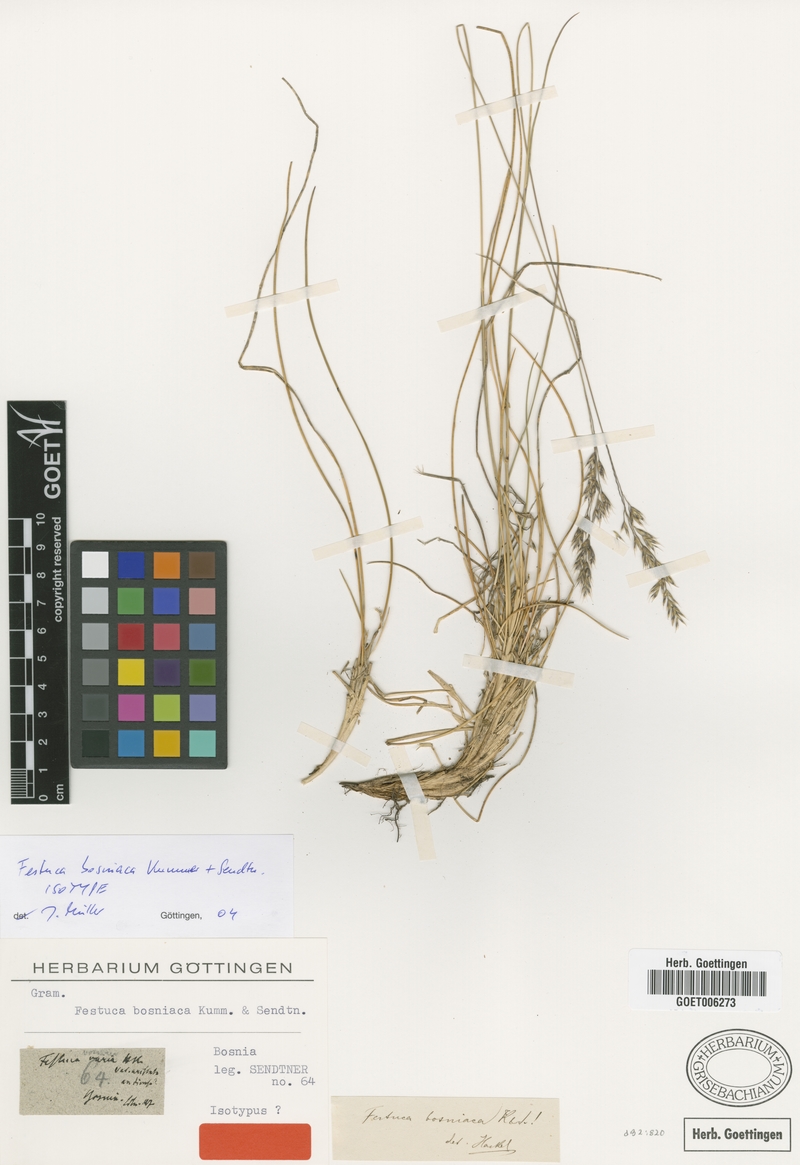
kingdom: Plantae
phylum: Tracheophyta
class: Liliopsida
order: Poales
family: Poaceae
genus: Festuca
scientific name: Festuca bosniaca
